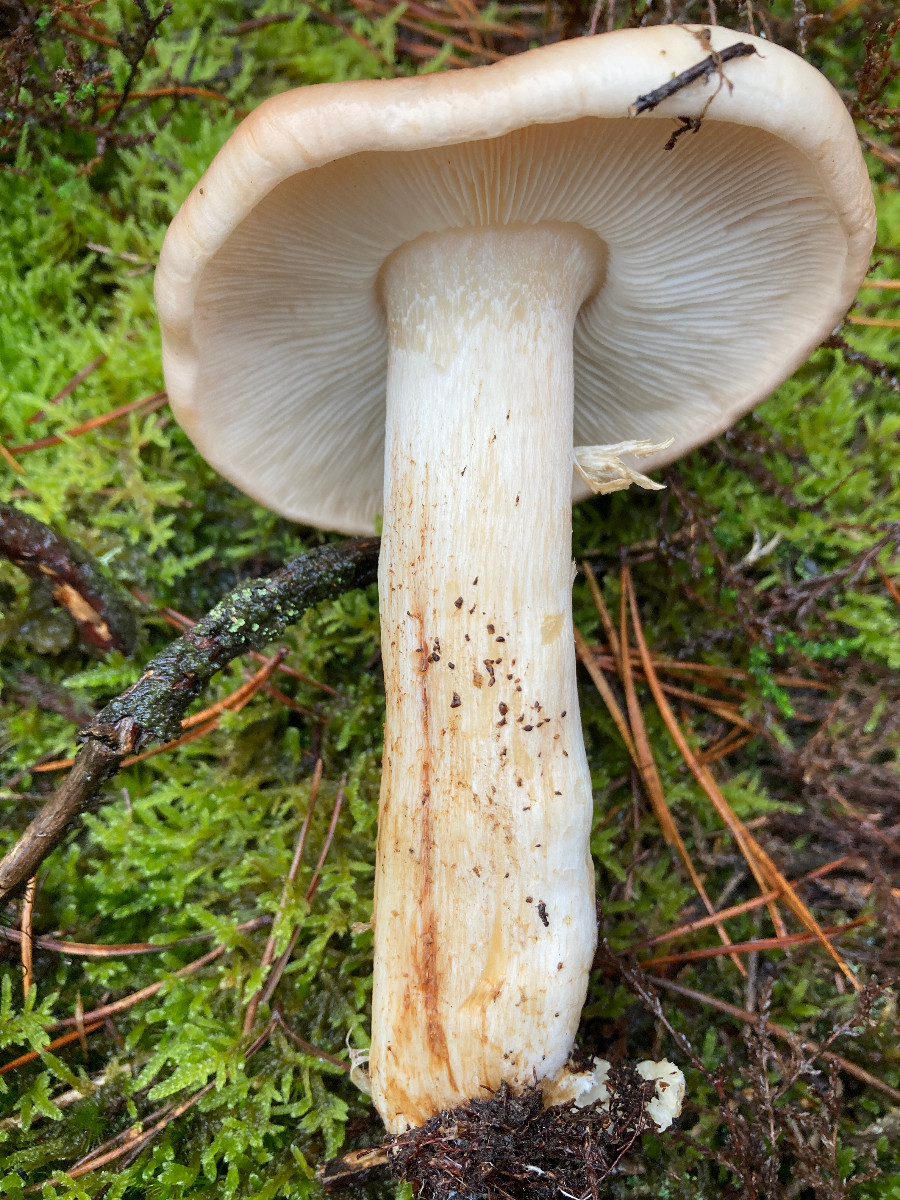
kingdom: Fungi
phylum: Basidiomycota
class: Agaricomycetes
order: Agaricales
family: Tricholomataceae
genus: Tricholoma
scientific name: Tricholoma stans
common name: stolt ridderhat
